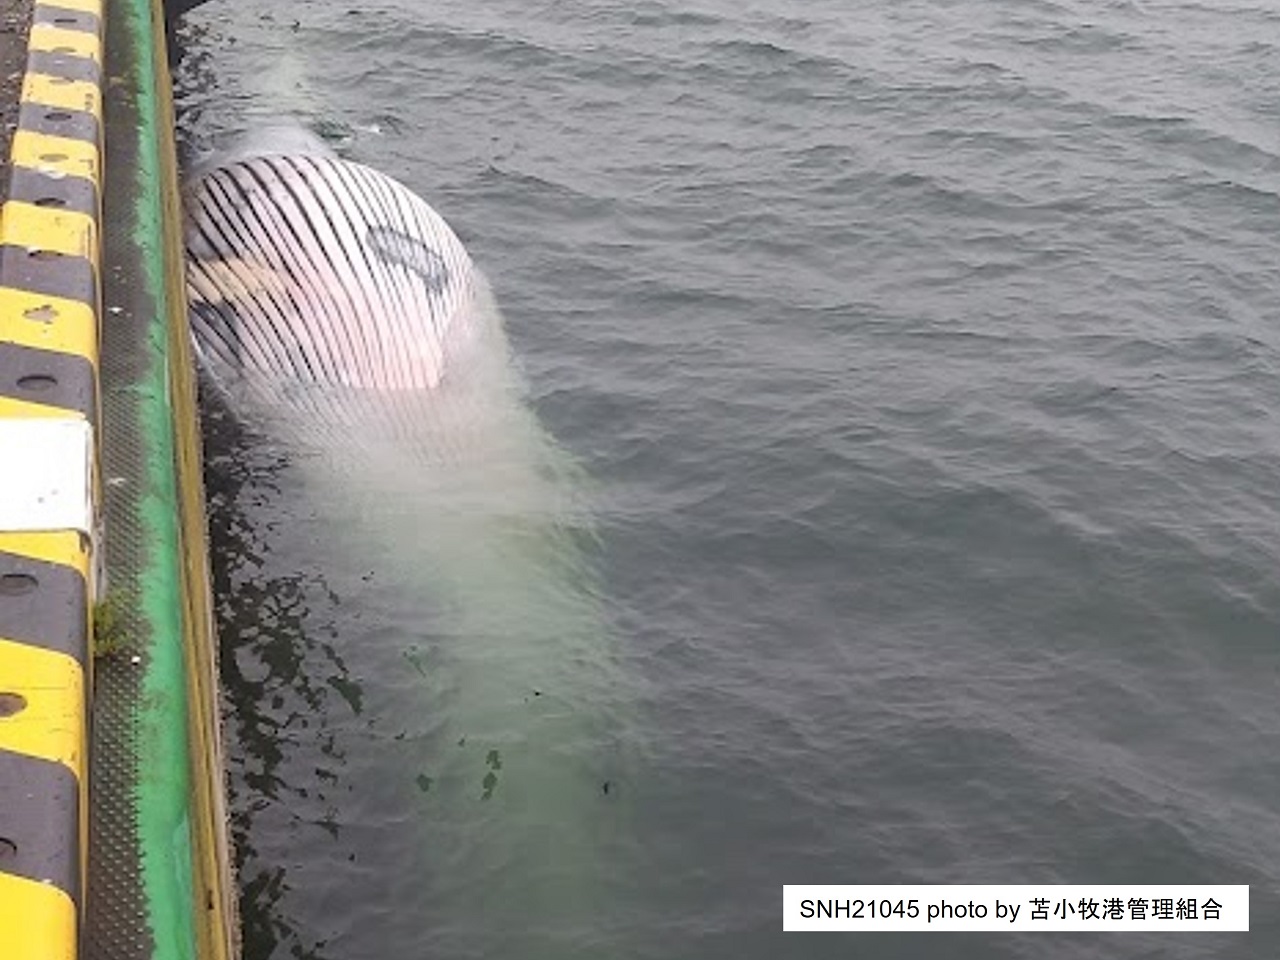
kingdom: Animalia
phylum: Chordata
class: Mammalia
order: Cetacea
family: Balaenopteridae
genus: Balaenoptera
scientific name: Balaenoptera edeni
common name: Bryde's whale
